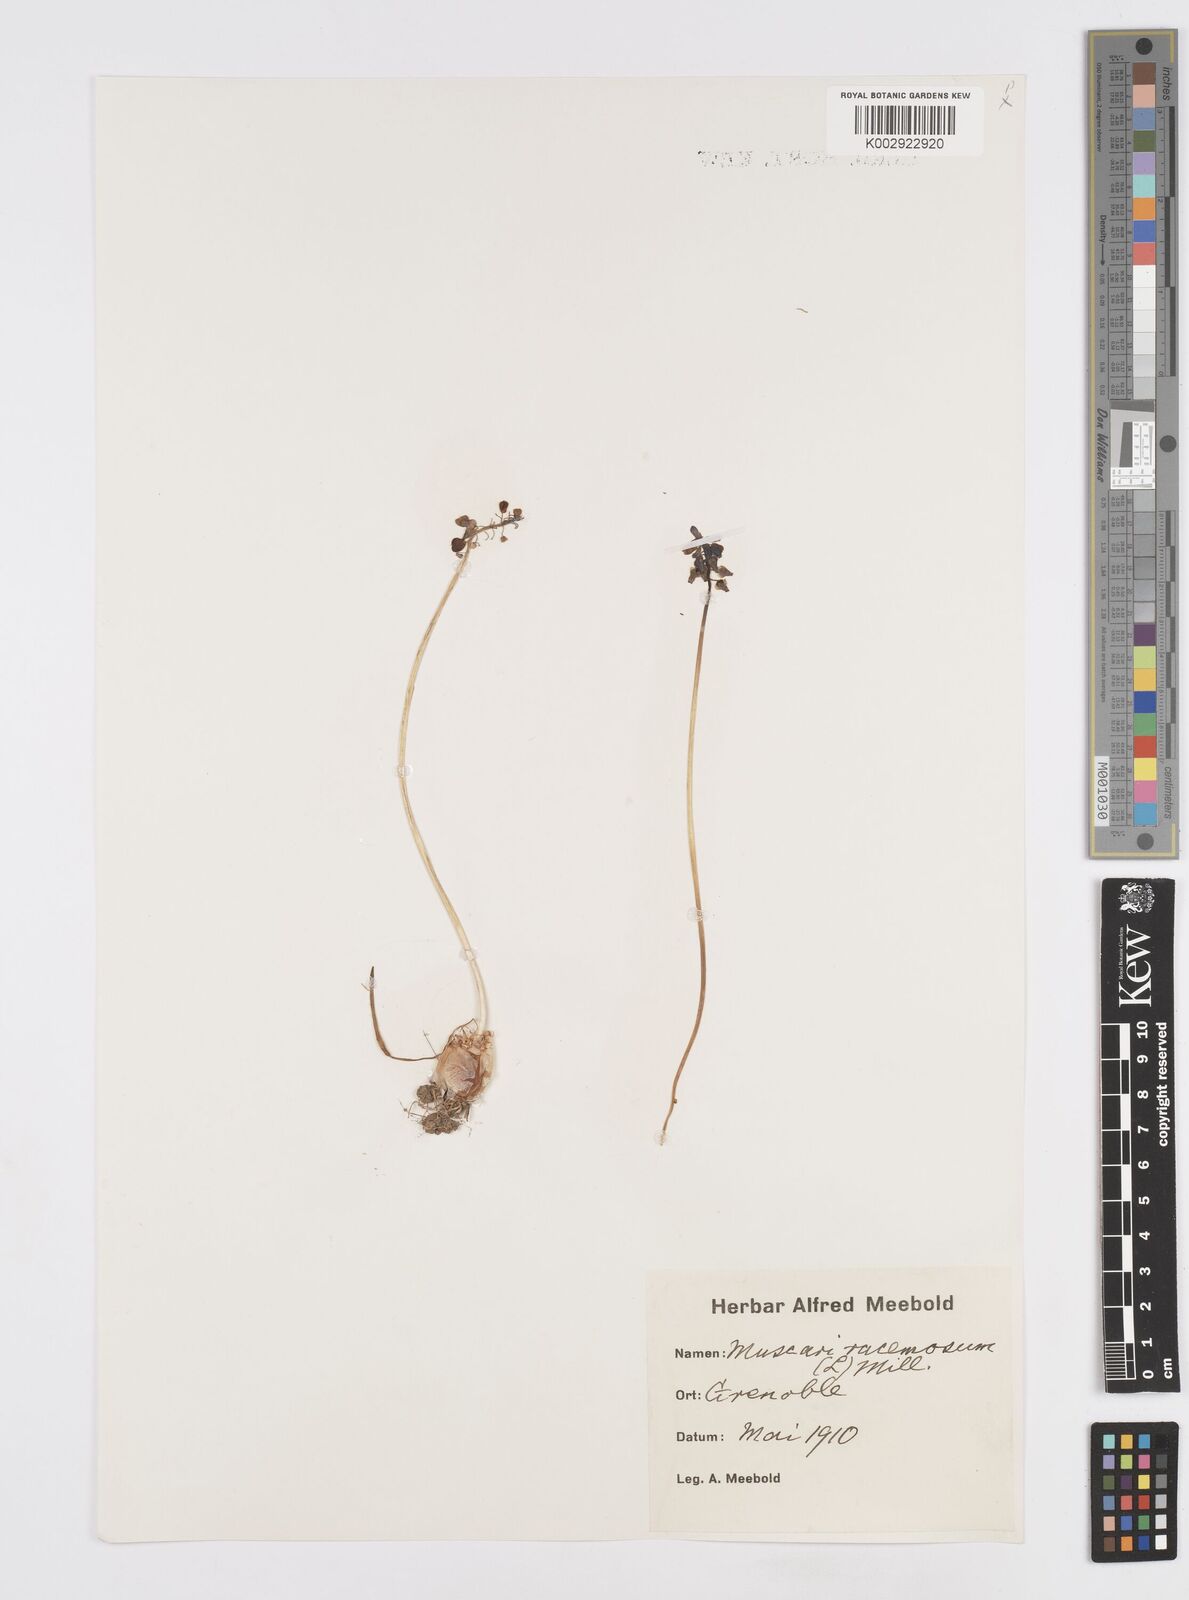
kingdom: Plantae
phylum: Tracheophyta
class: Liliopsida
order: Asparagales
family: Asparagaceae
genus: Muscarimia
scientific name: Muscarimia muscari
